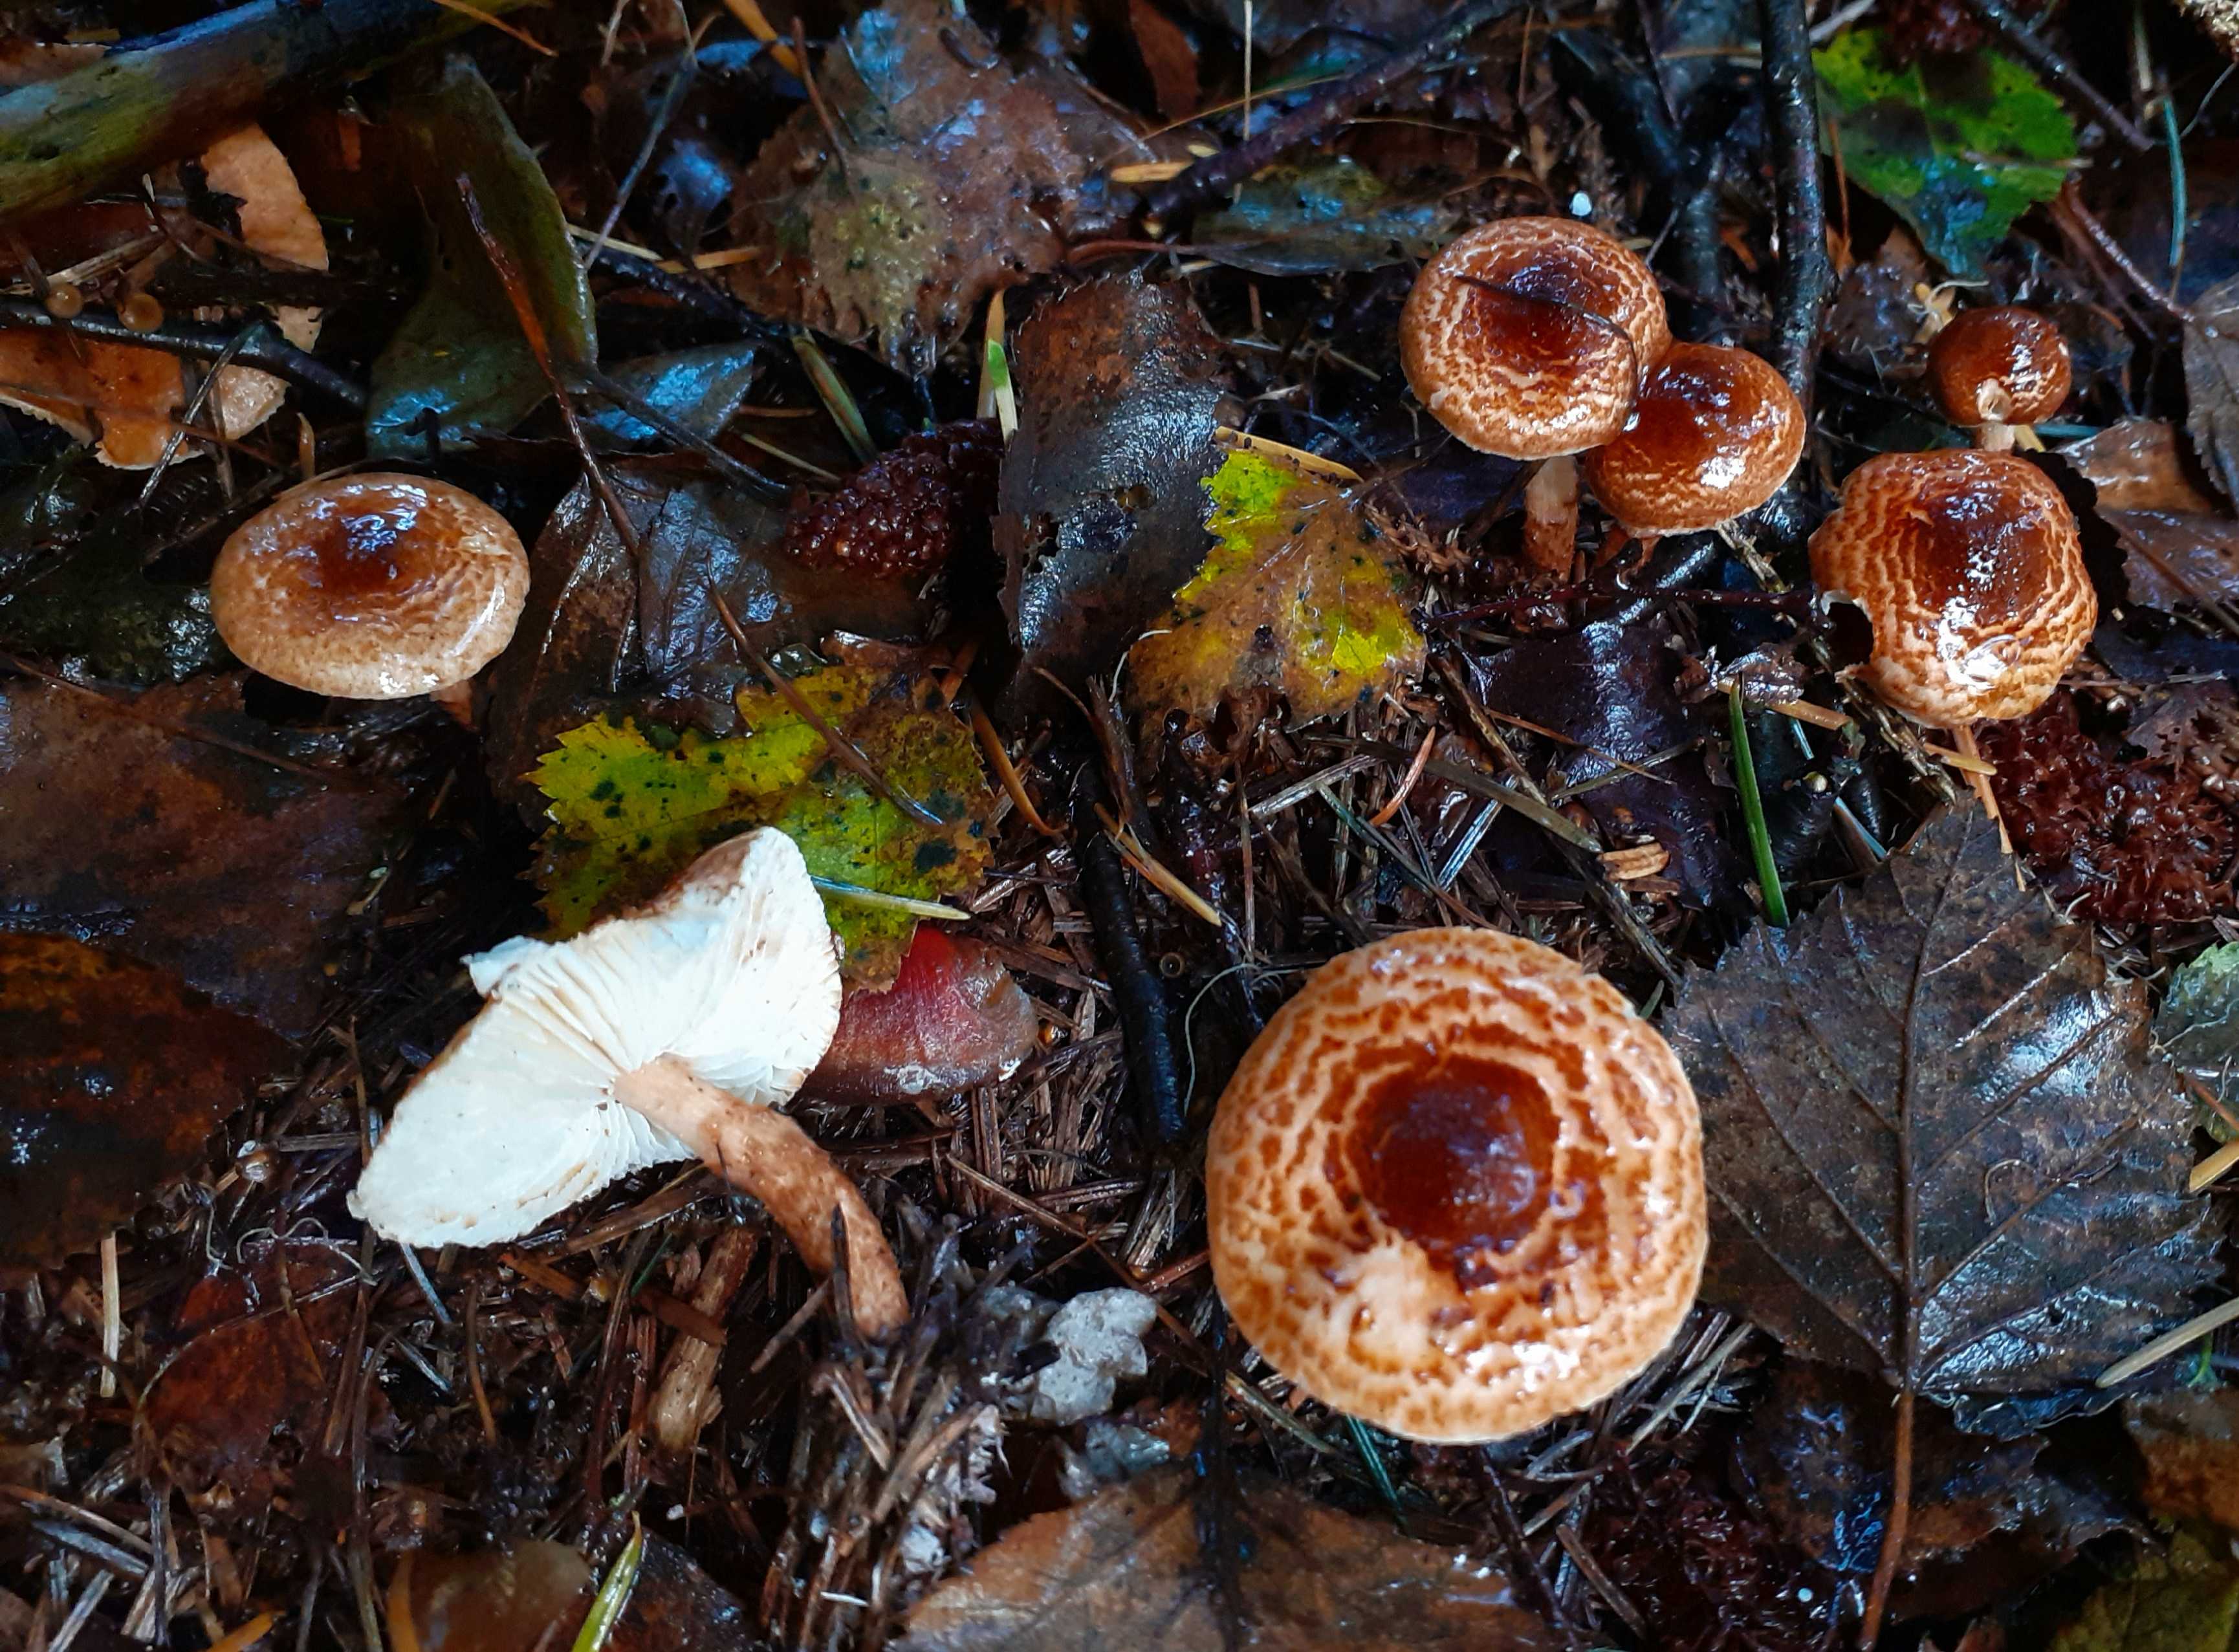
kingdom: Fungi
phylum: Basidiomycota
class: Agaricomycetes
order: Agaricales
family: Agaricaceae
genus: Lepiota
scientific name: Lepiota castanea
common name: kastaniebrun parasolhat
